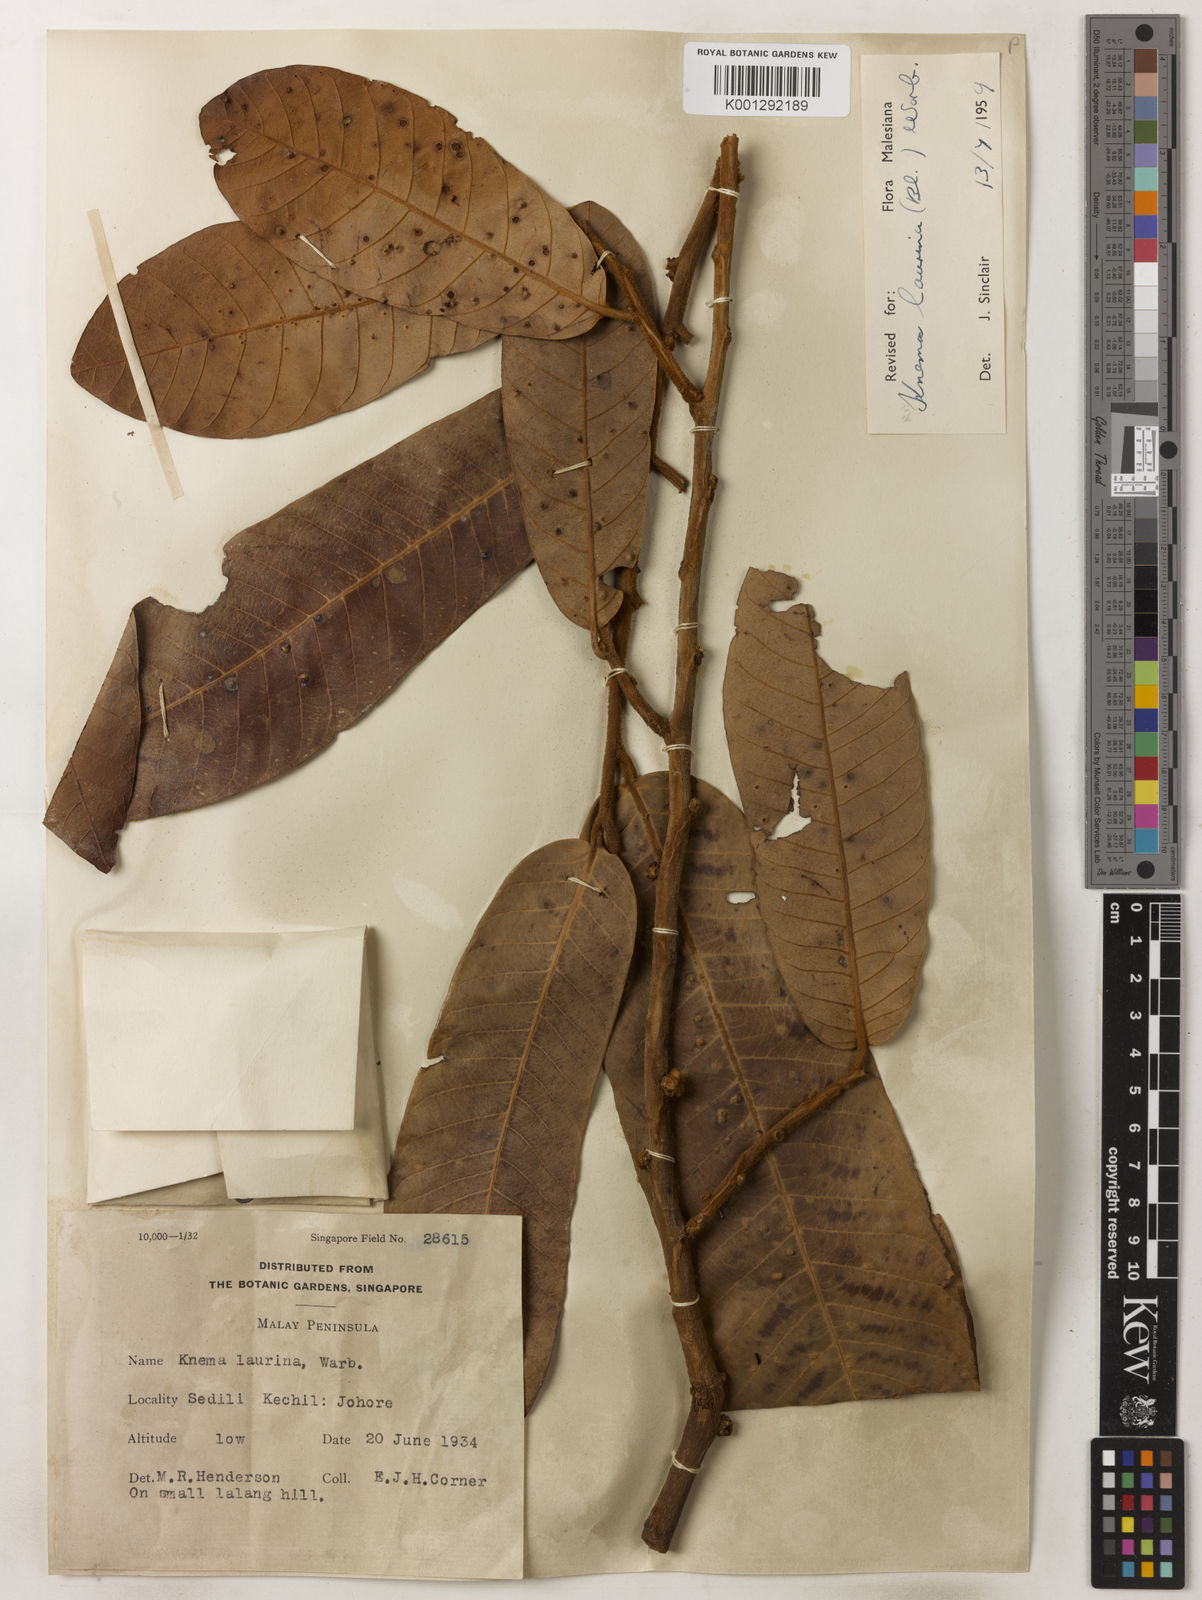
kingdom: Plantae
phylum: Tracheophyta
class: Magnoliopsida
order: Magnoliales
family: Myristicaceae
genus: Knema
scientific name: Knema laurina
